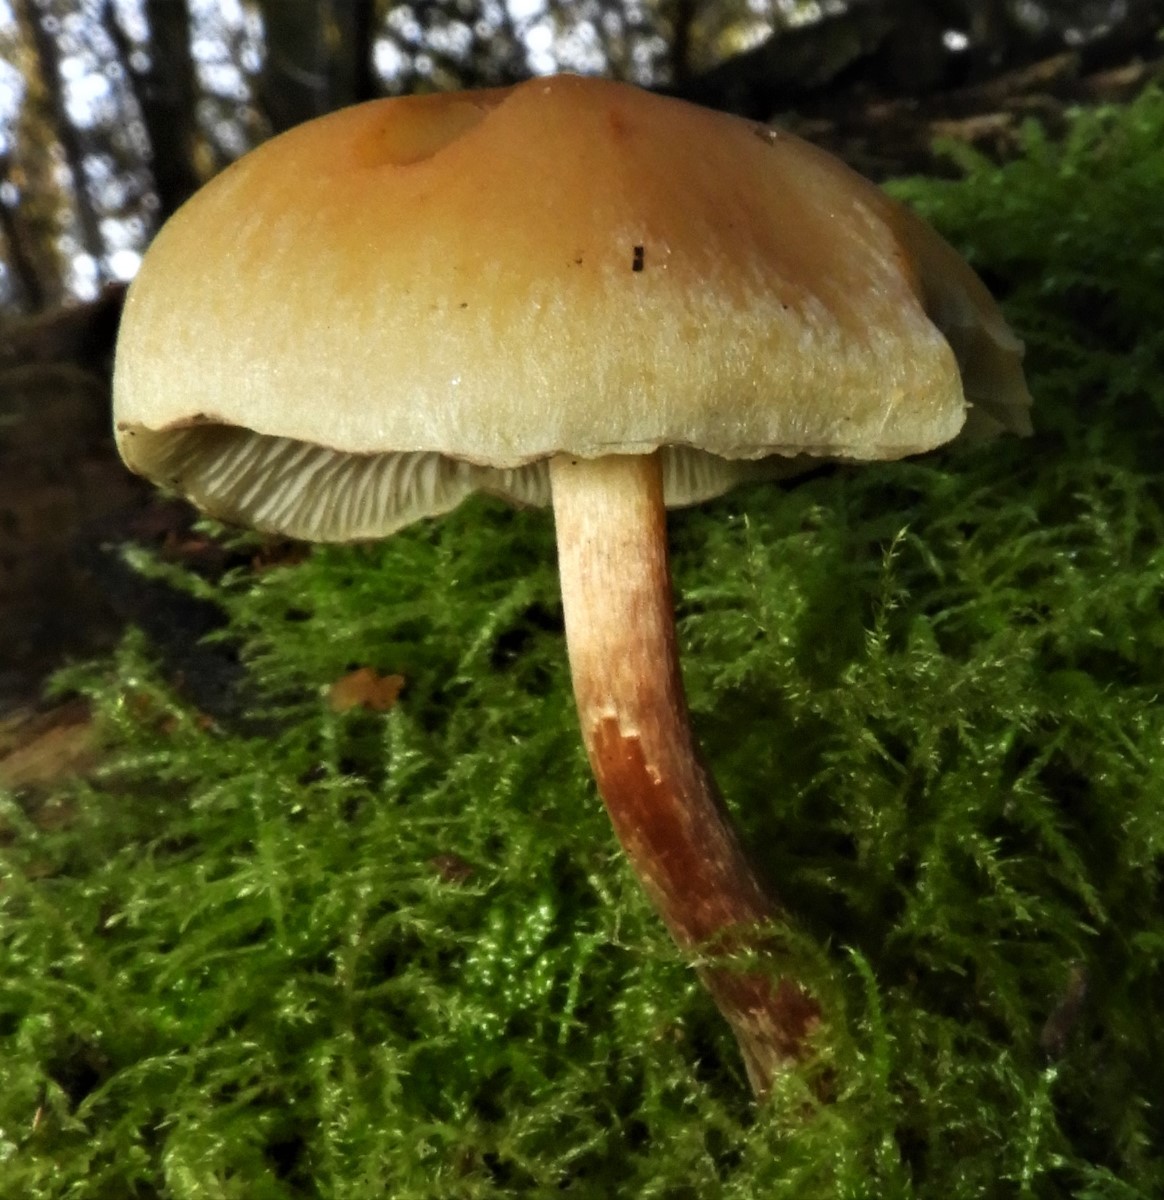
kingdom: Fungi
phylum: Basidiomycota
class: Agaricomycetes
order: Agaricales
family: Strophariaceae
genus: Hypholoma
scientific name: Hypholoma capnoides
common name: gran-svovlhat
